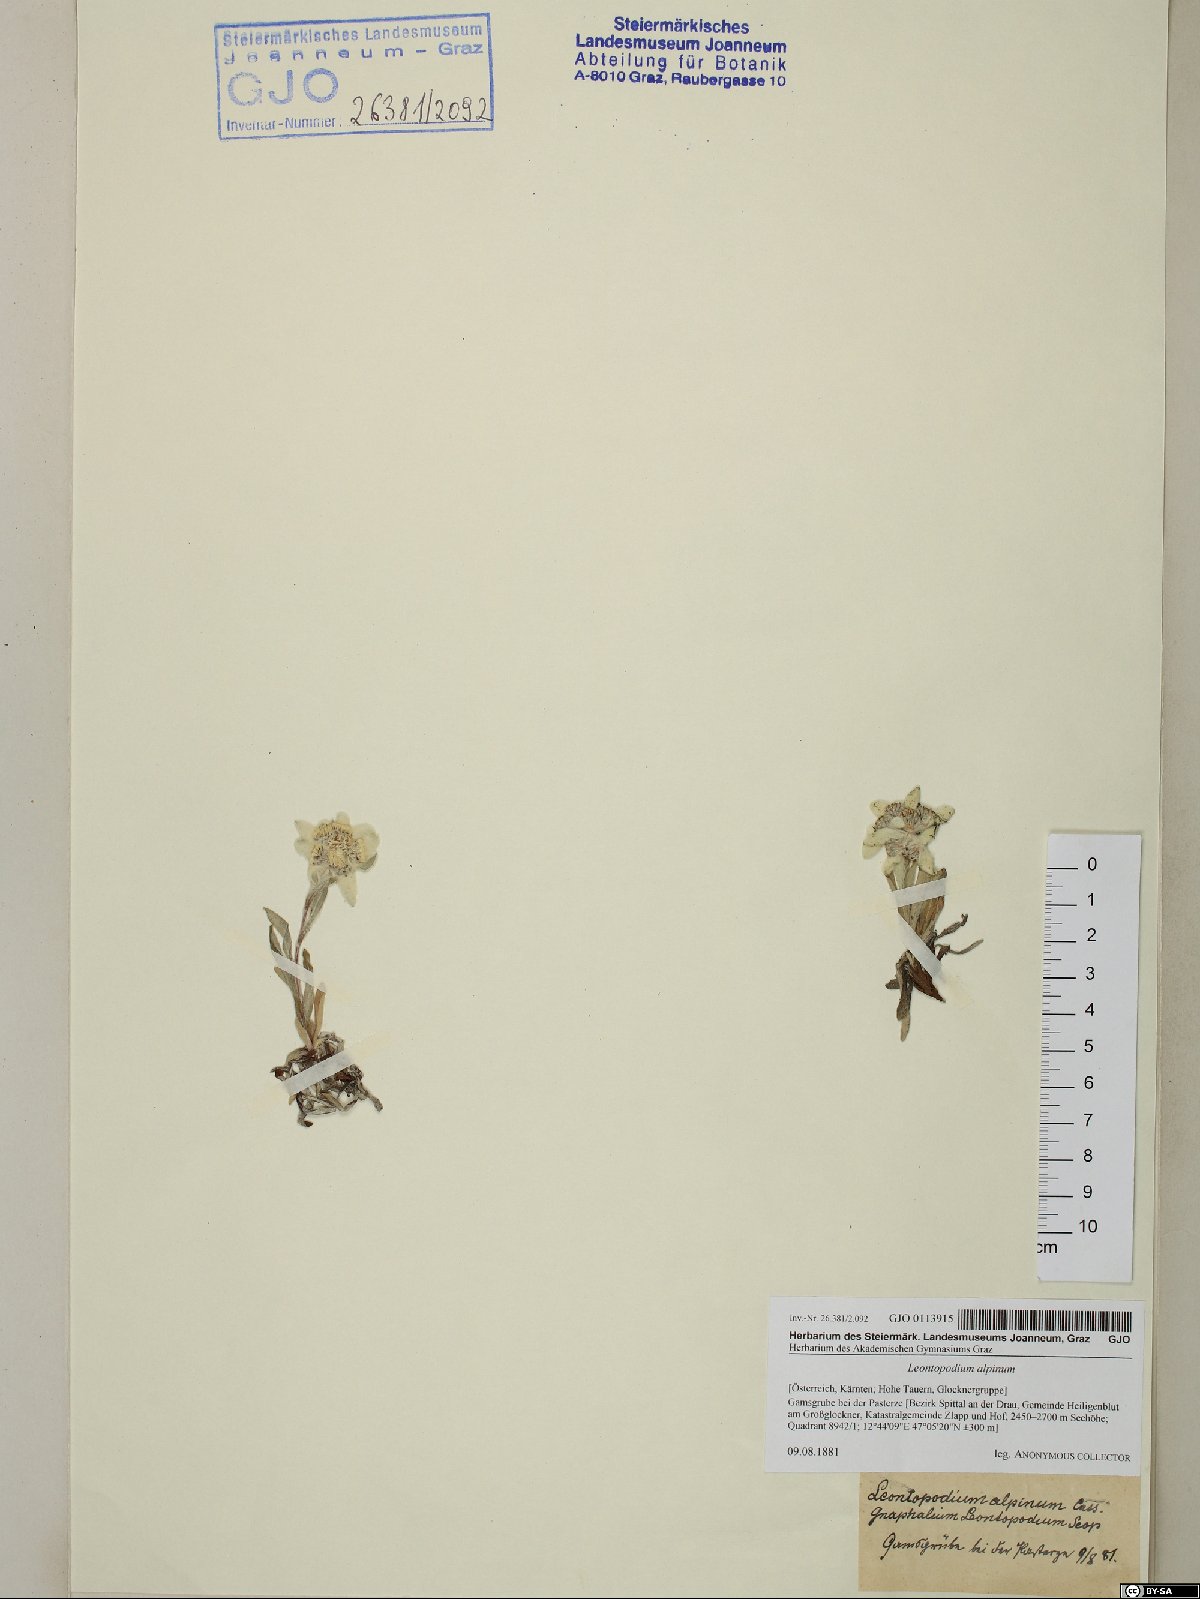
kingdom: Plantae
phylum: Tracheophyta
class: Magnoliopsida
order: Asterales
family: Asteraceae
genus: Leontopodium
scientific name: Leontopodium nivale
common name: Edelweiss
